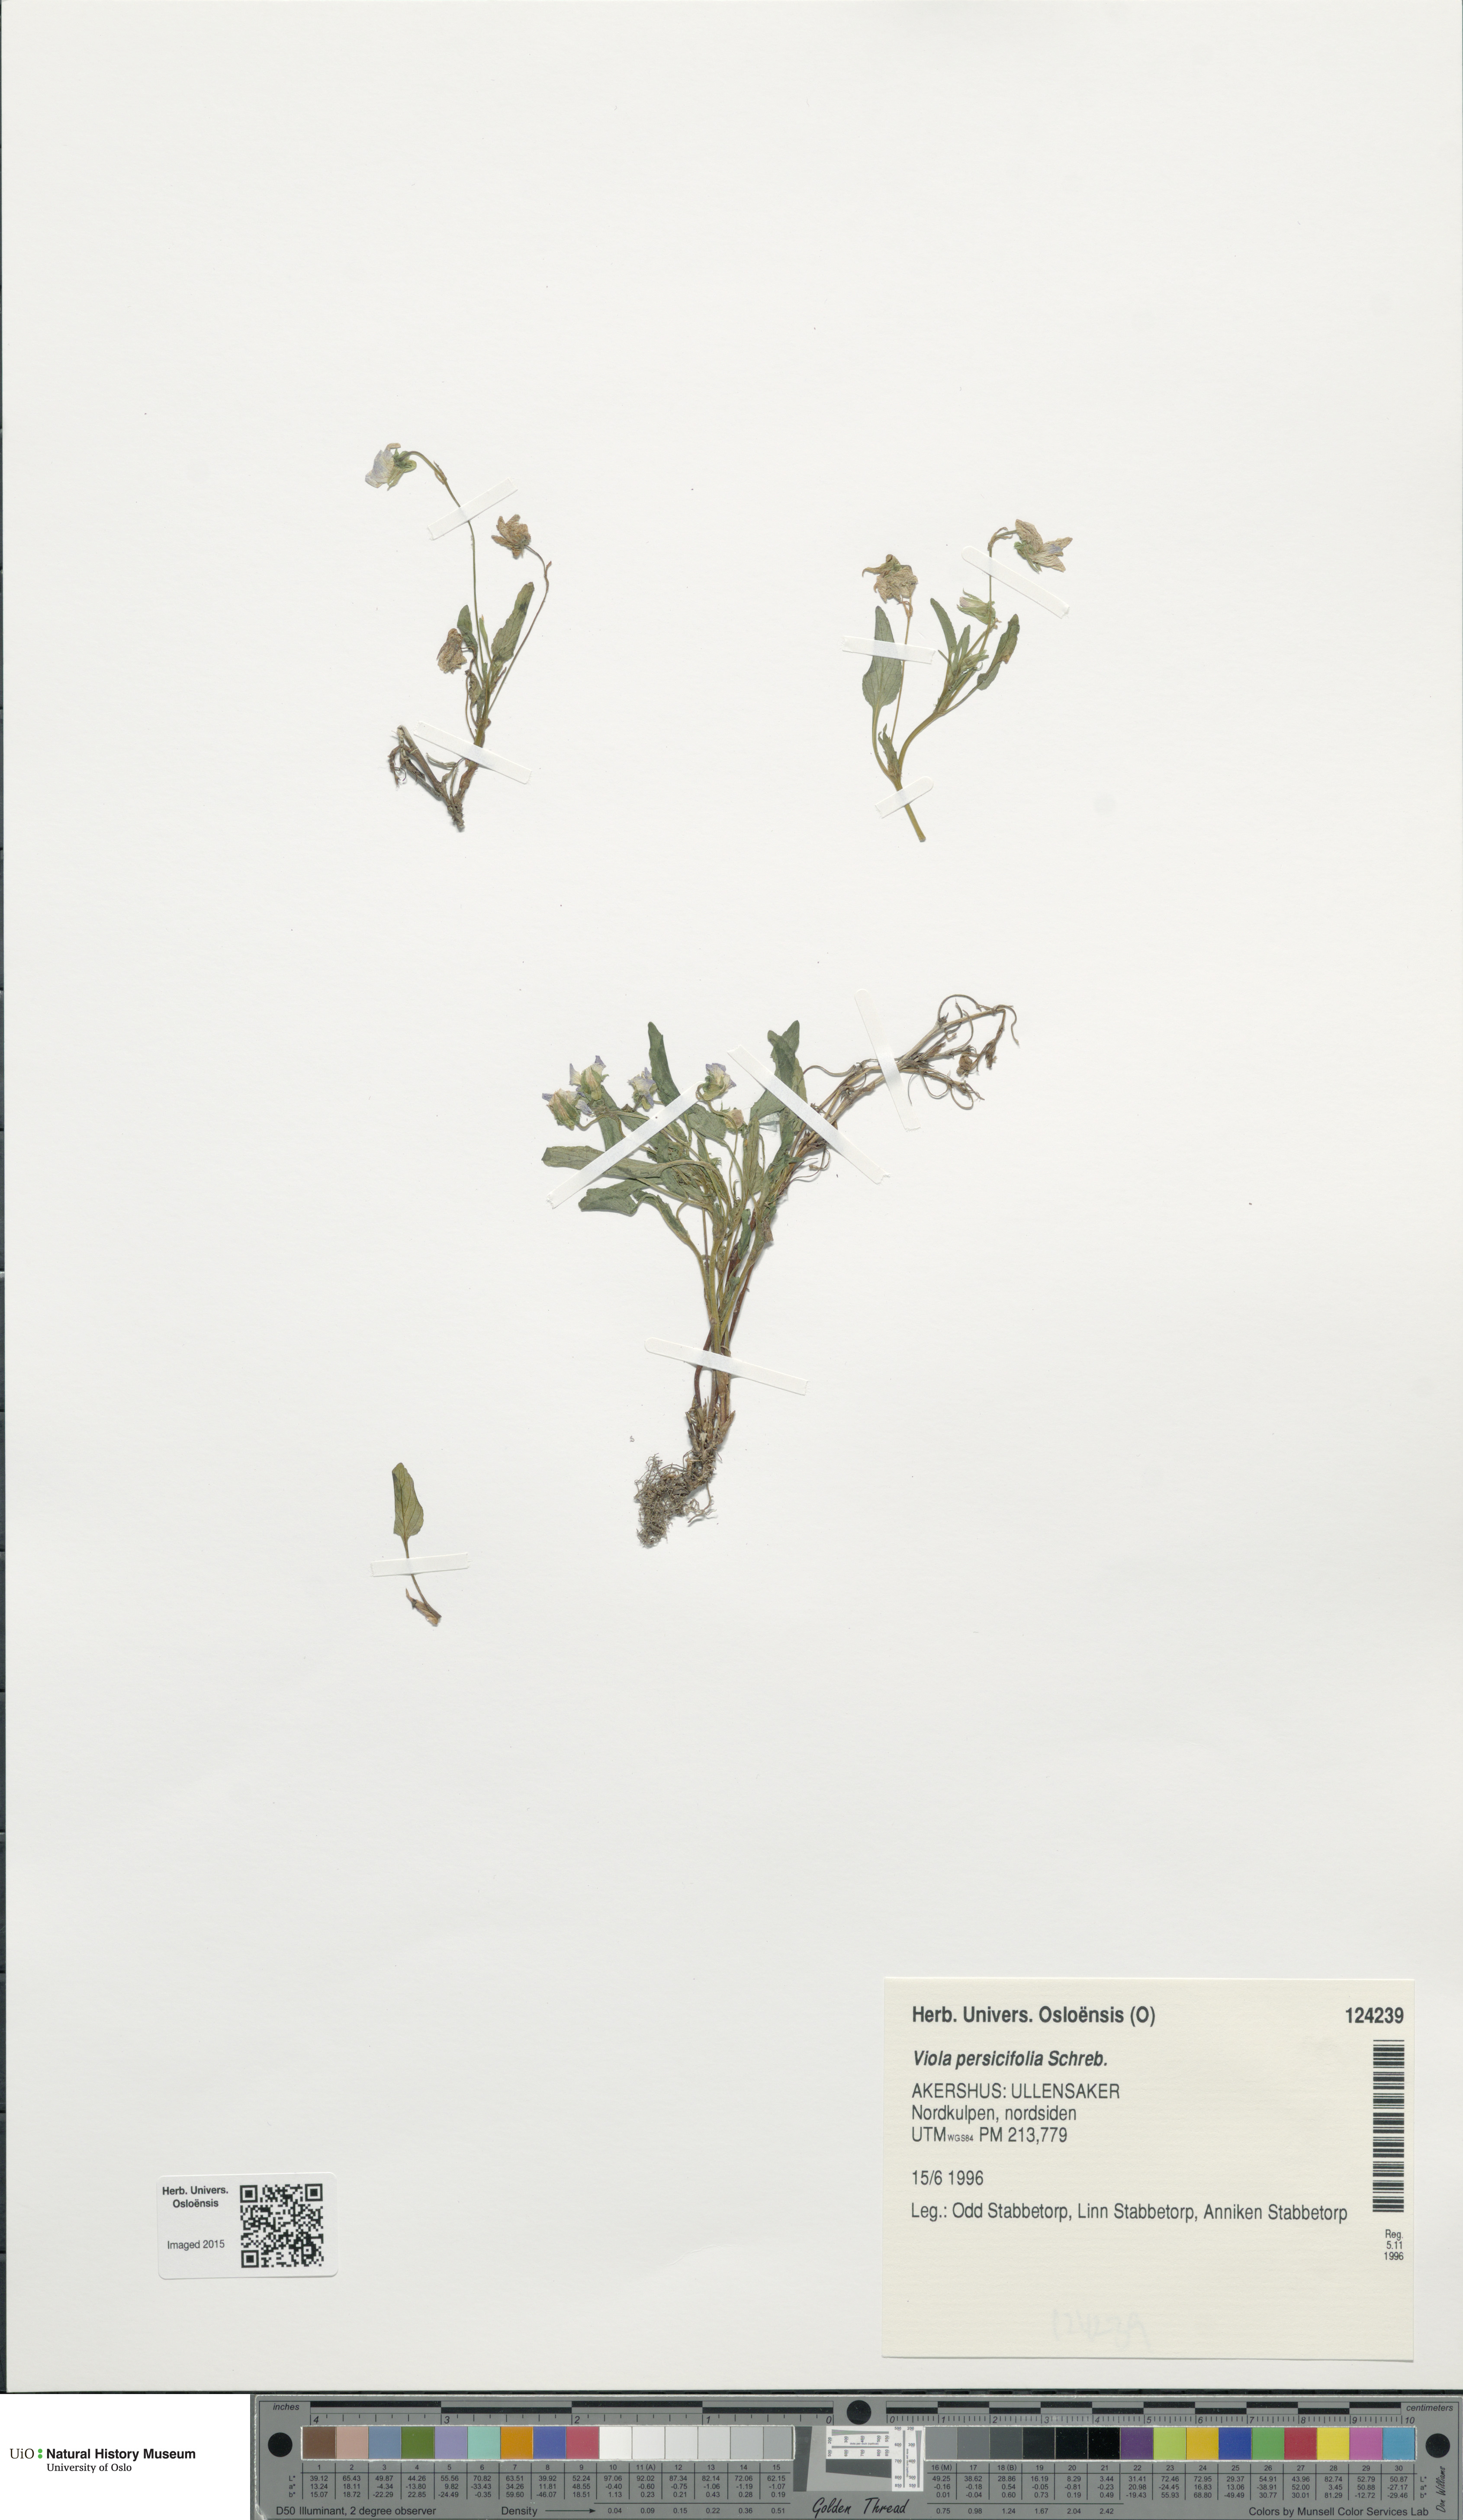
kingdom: Plantae
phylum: Tracheophyta
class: Magnoliopsida
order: Malpighiales
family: Violaceae
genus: Viola
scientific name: Viola stagnina
